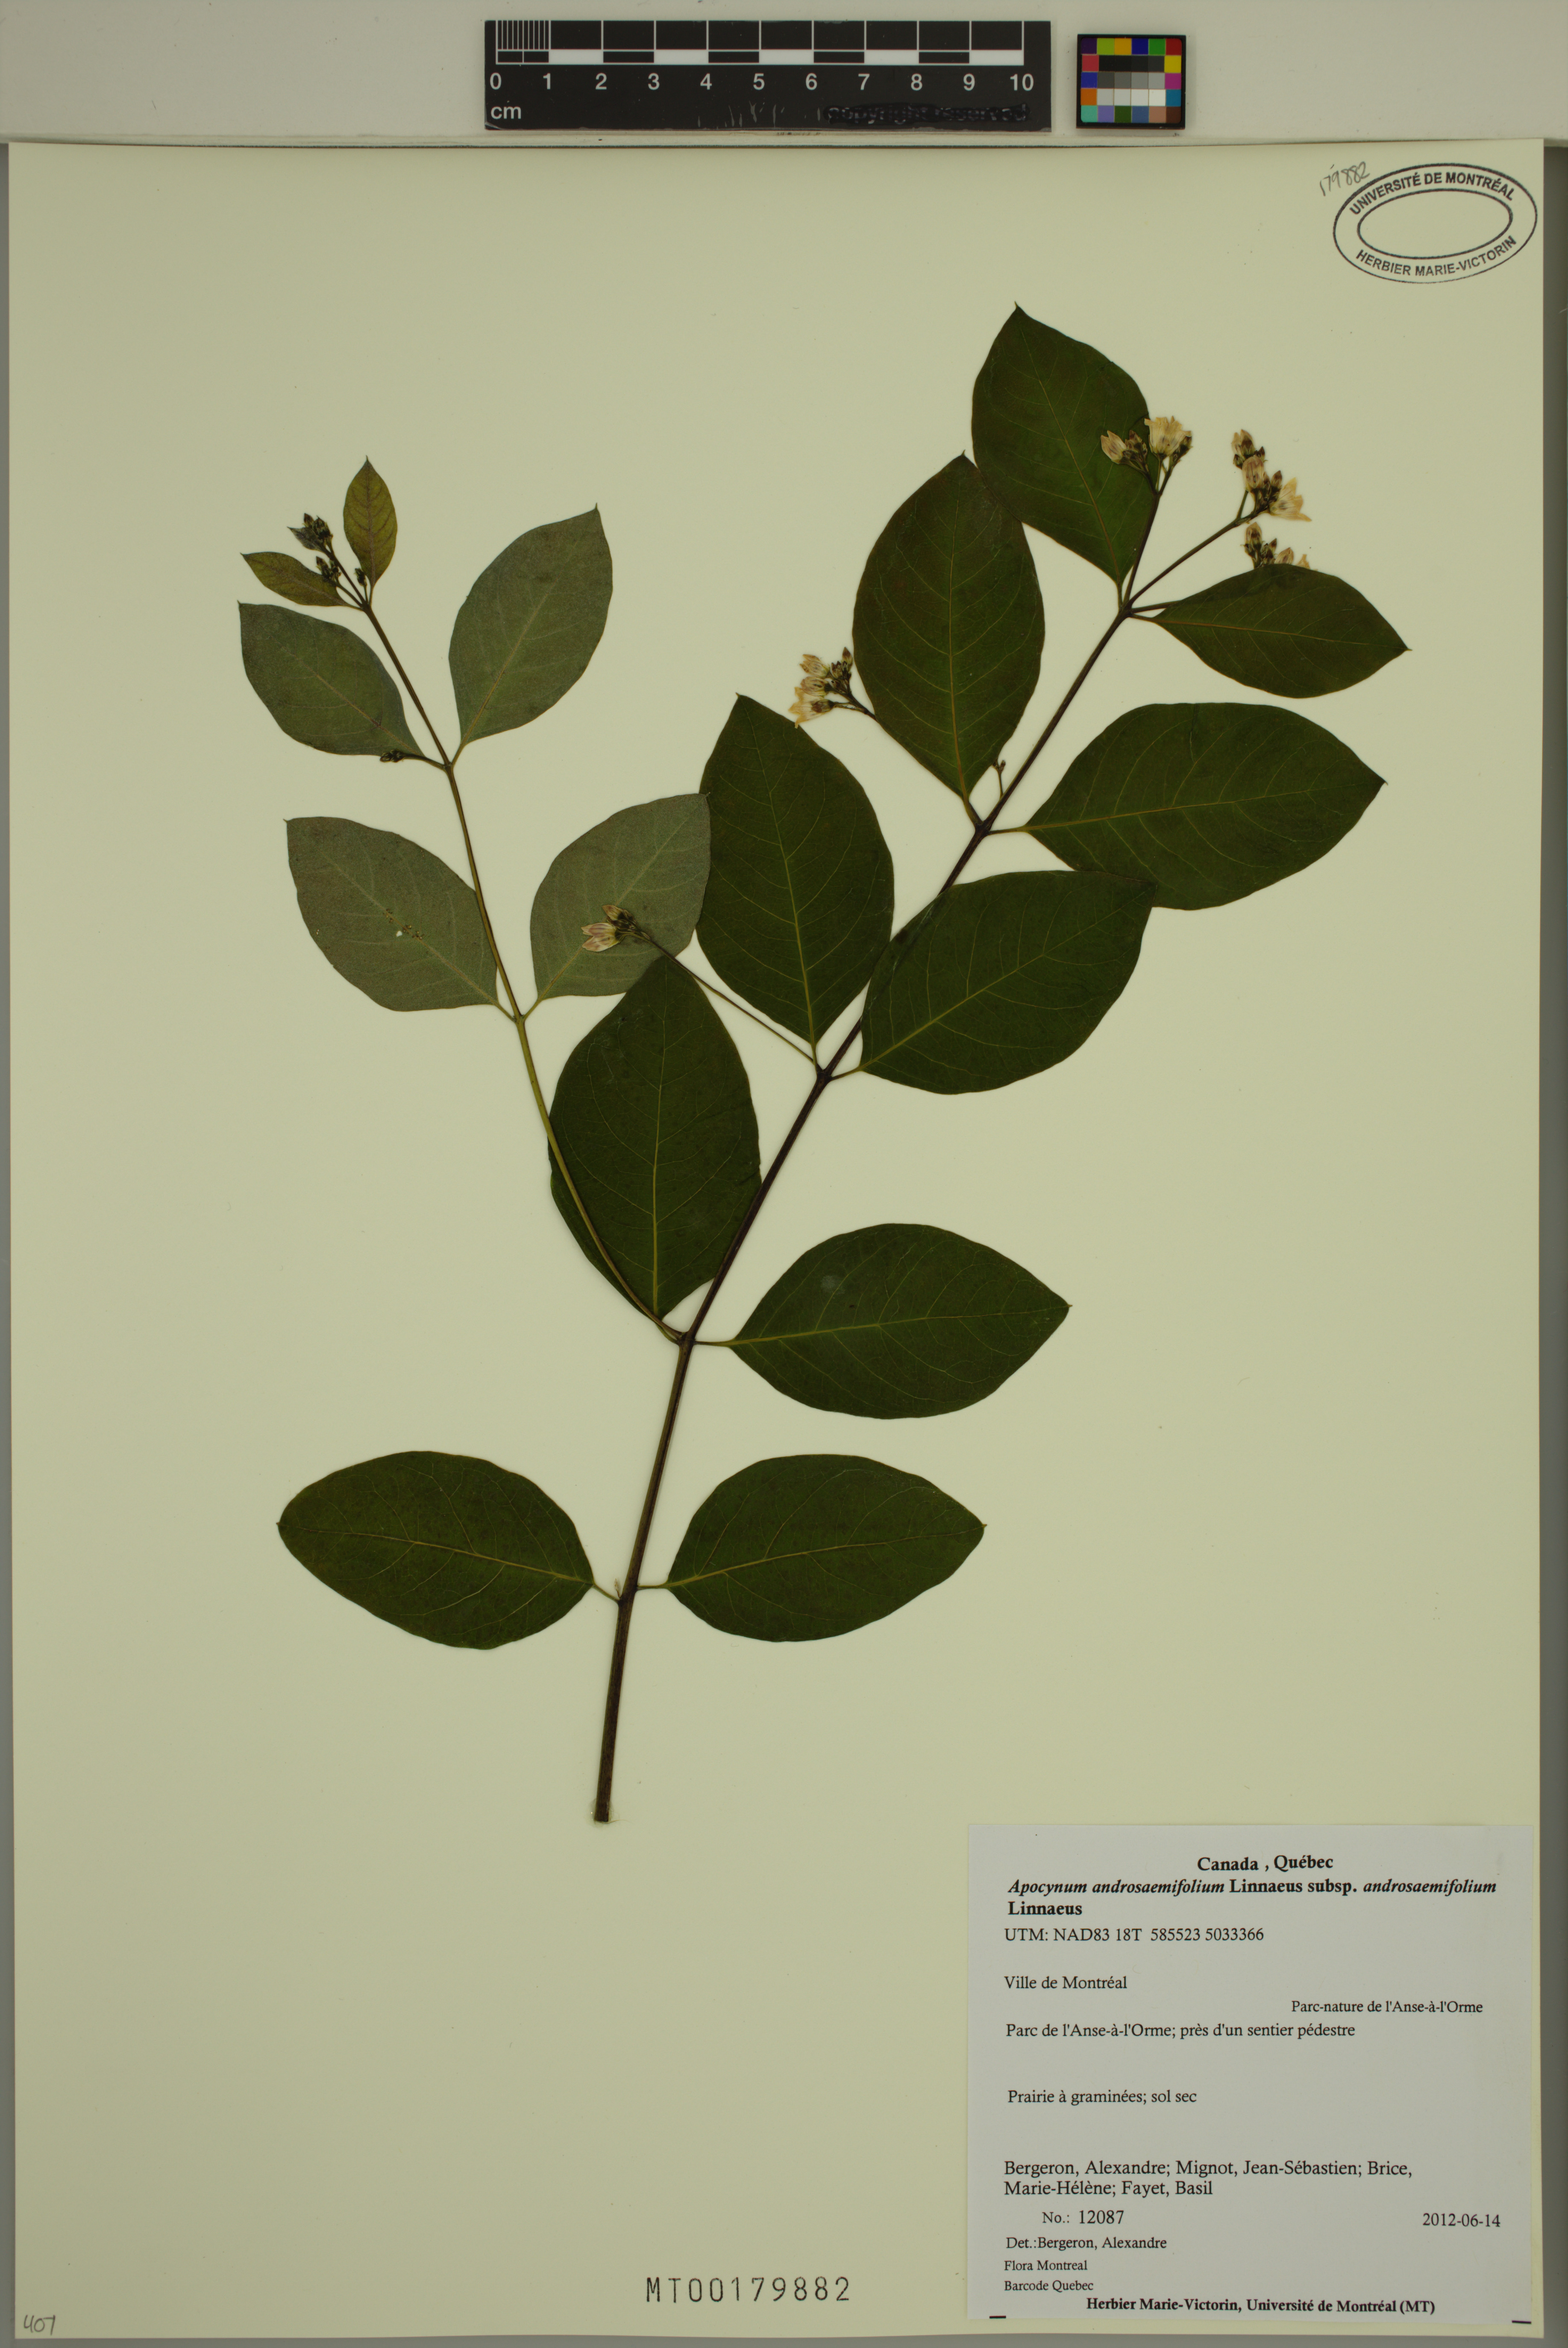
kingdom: Plantae
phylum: Tracheophyta
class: Magnoliopsida
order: Gentianales
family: Apocynaceae
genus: Apocynum
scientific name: Apocynum androsaemifolium
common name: Spreading dogbane
